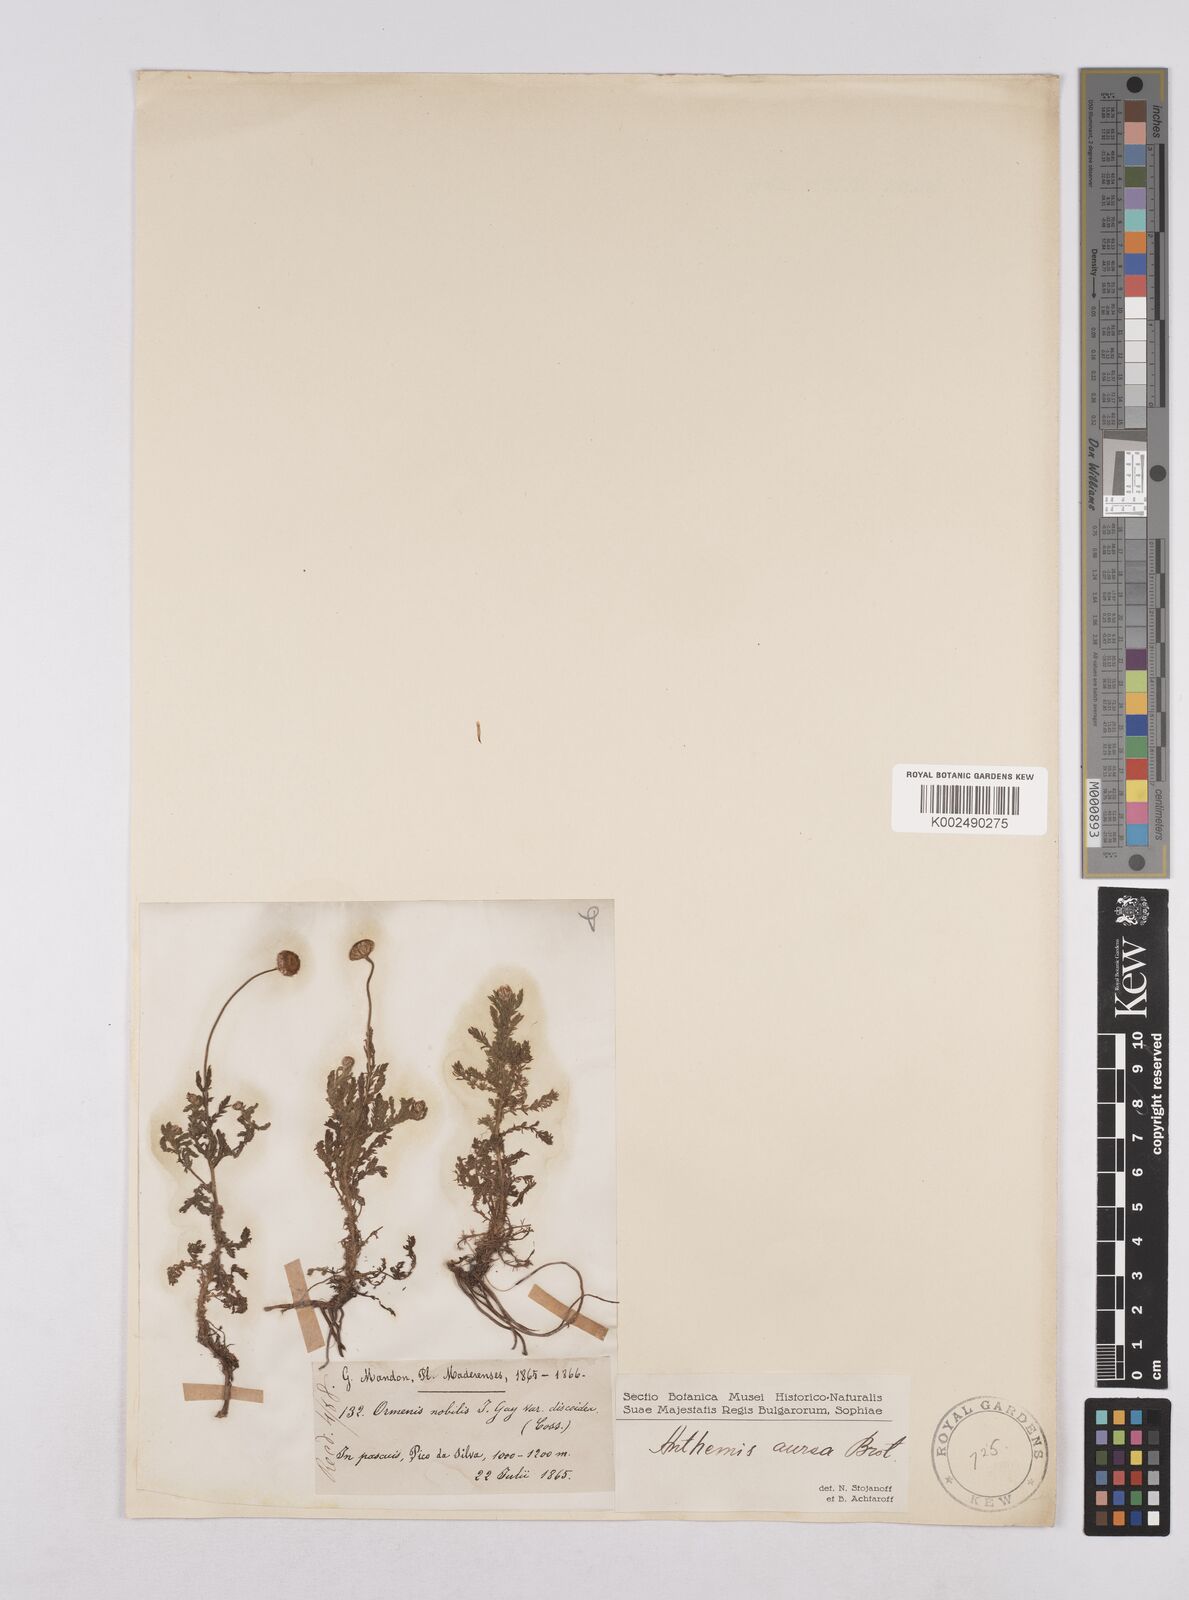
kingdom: Plantae
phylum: Tracheophyta
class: Magnoliopsida
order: Asterales
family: Asteraceae
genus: Cota
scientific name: Cota tinctoria
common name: Golden chamomile
